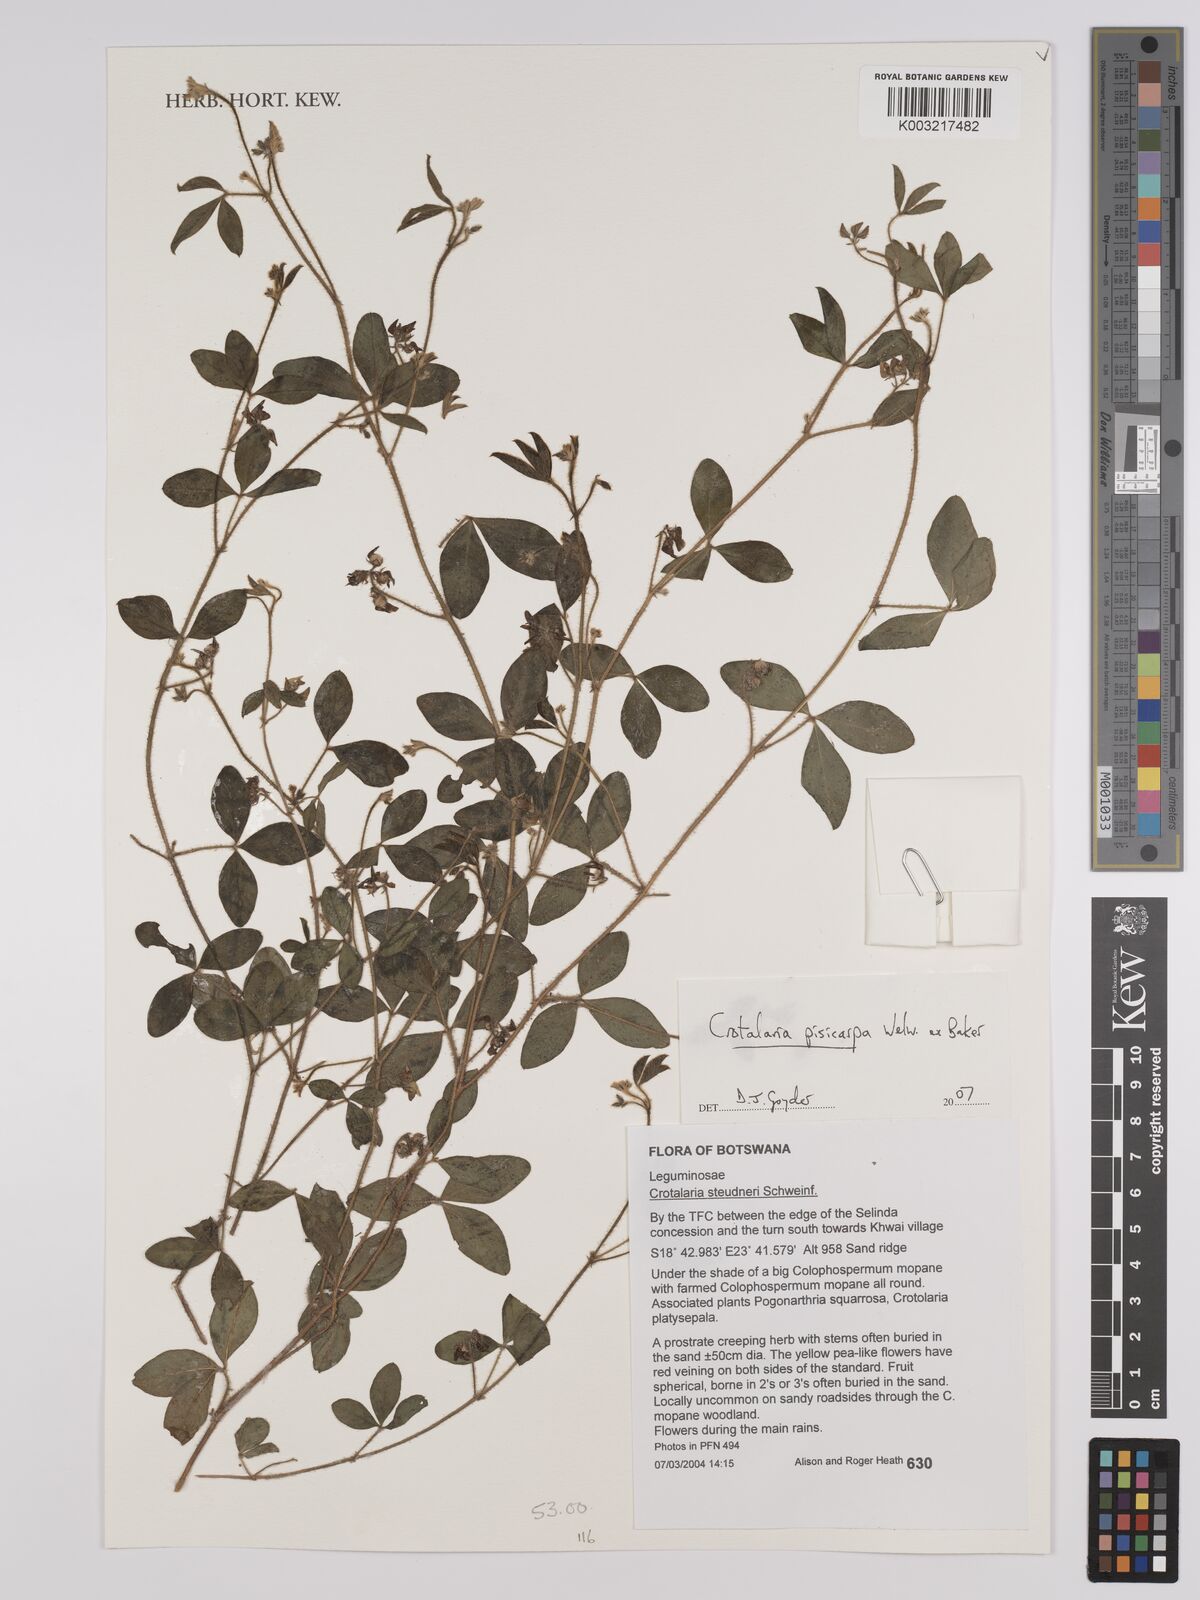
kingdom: Plantae
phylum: Tracheophyta
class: Magnoliopsida
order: Fabales
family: Fabaceae
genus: Crotalaria
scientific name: Crotalaria pisicarpa
